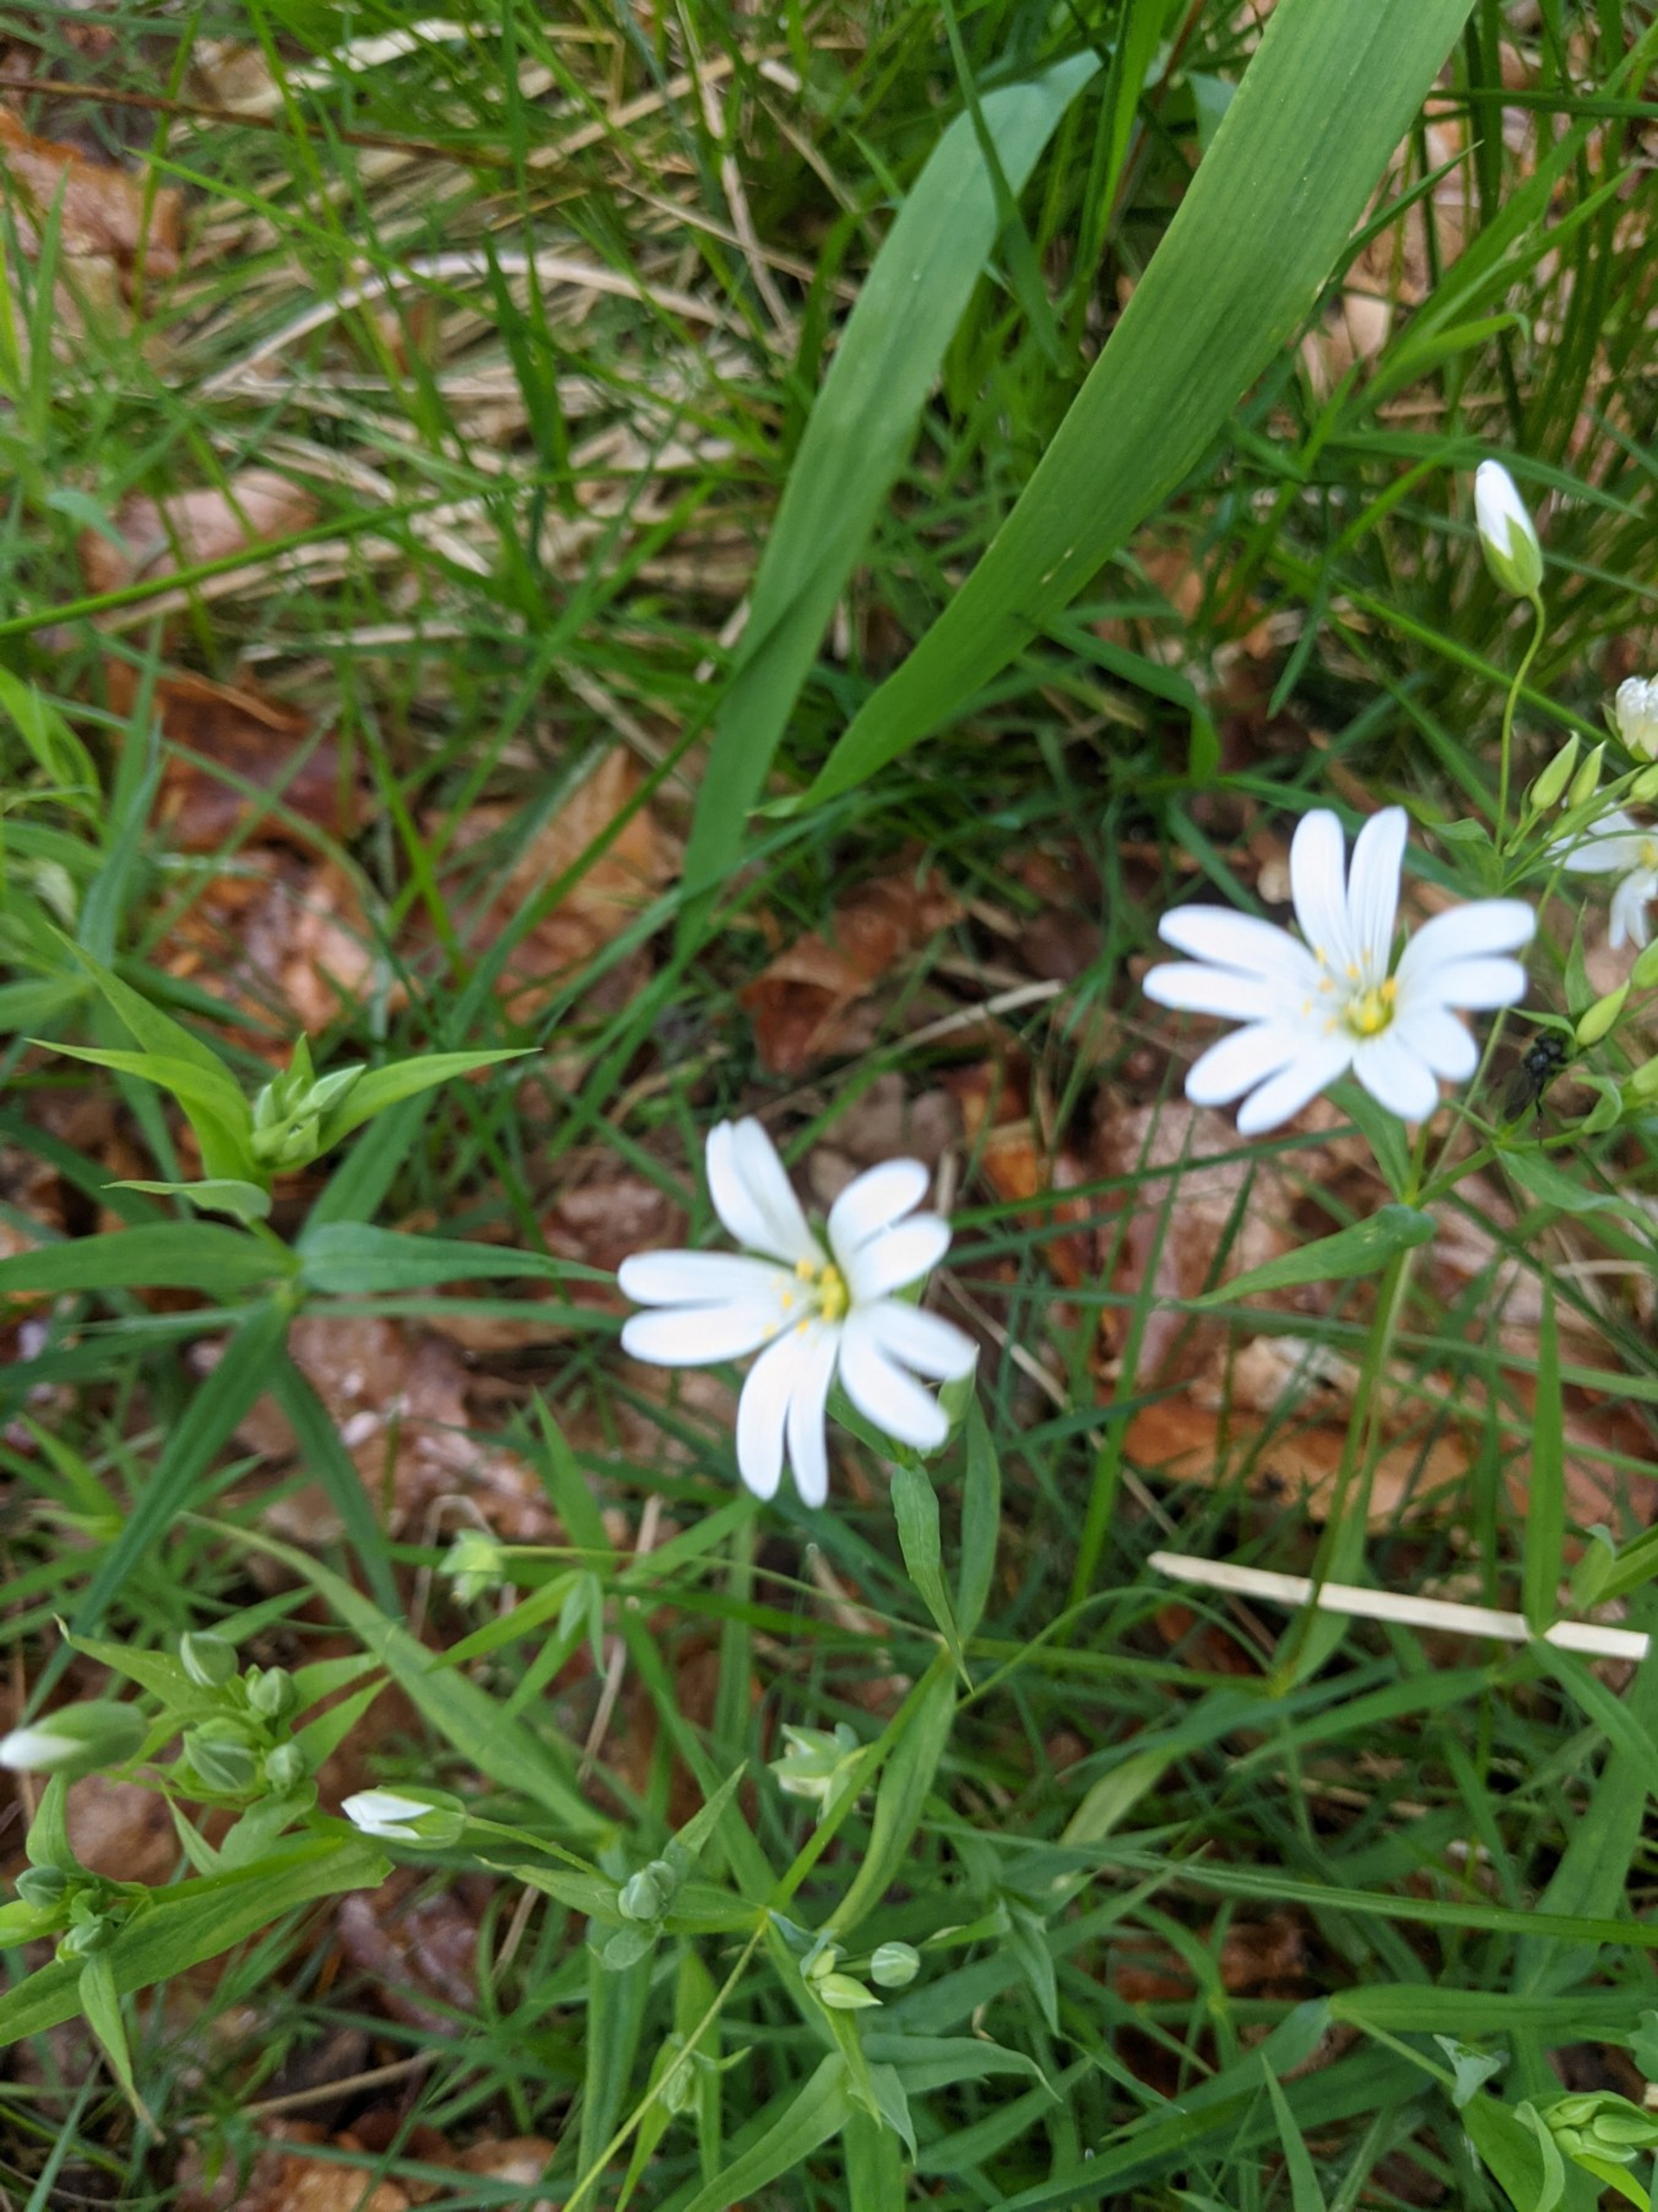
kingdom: Plantae
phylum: Tracheophyta
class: Magnoliopsida
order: Caryophyllales
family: Caryophyllaceae
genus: Rabelera
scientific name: Rabelera holostea
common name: Stor fladstjerne
